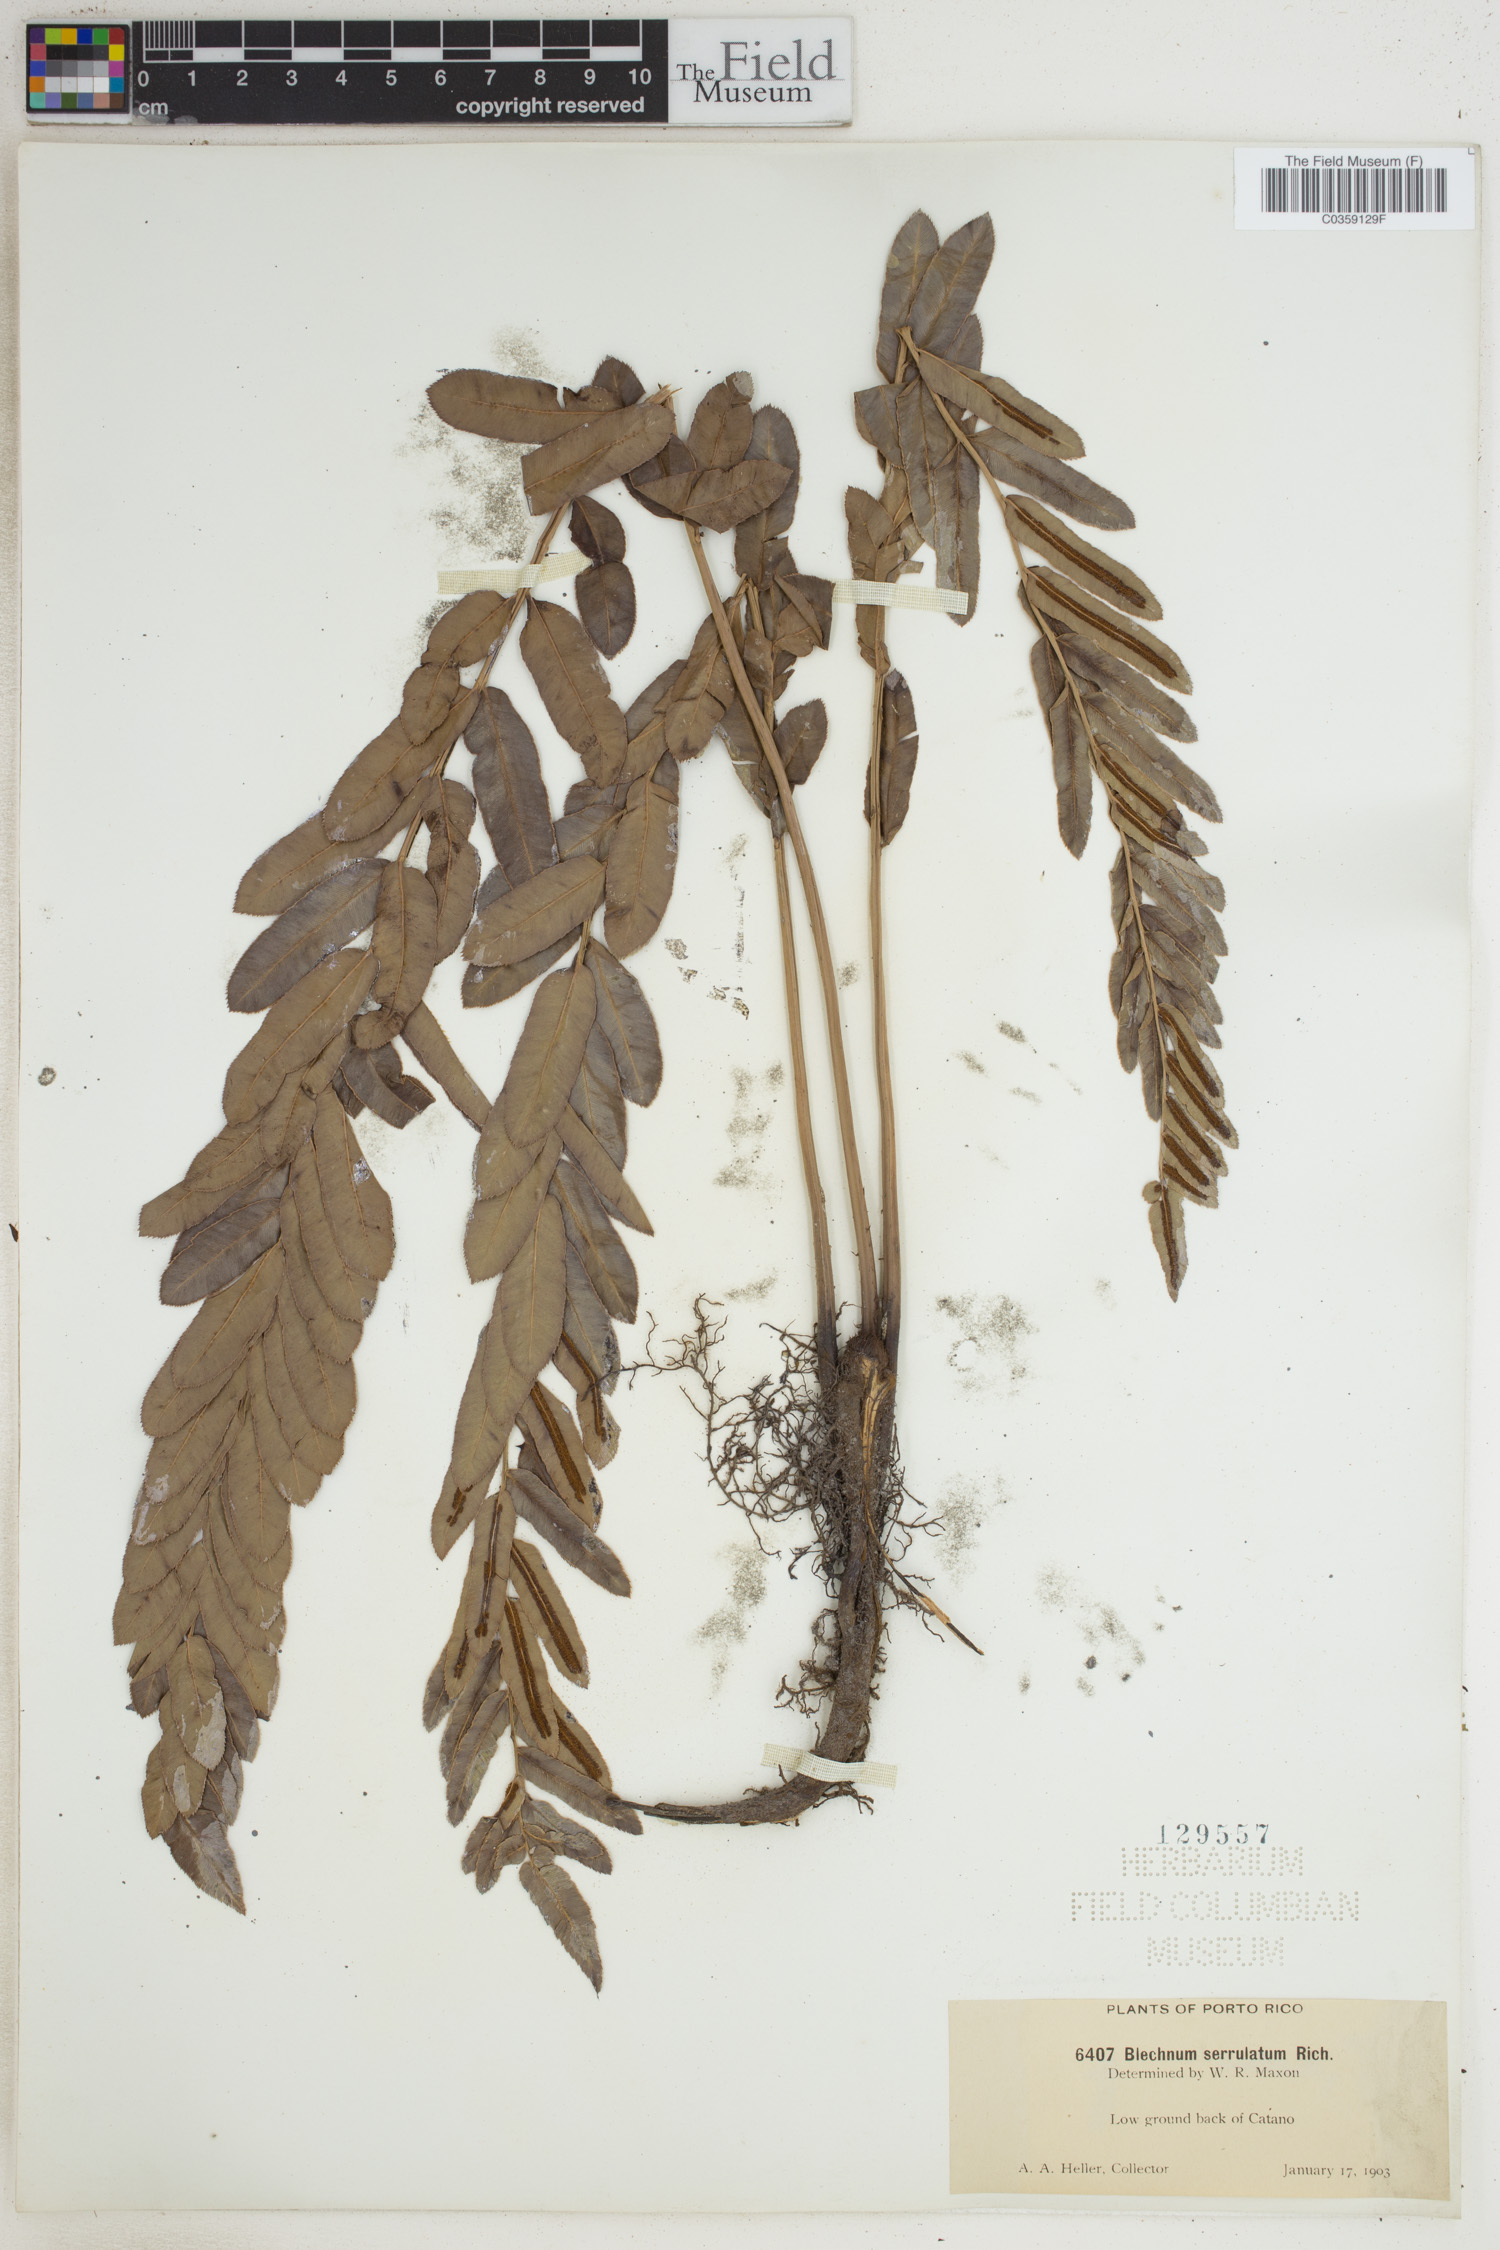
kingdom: Plantae
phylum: Tracheophyta
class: Polypodiopsida
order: Polypodiales
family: Blechnaceae
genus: Telmatoblechnum
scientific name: Telmatoblechnum serrulatum
